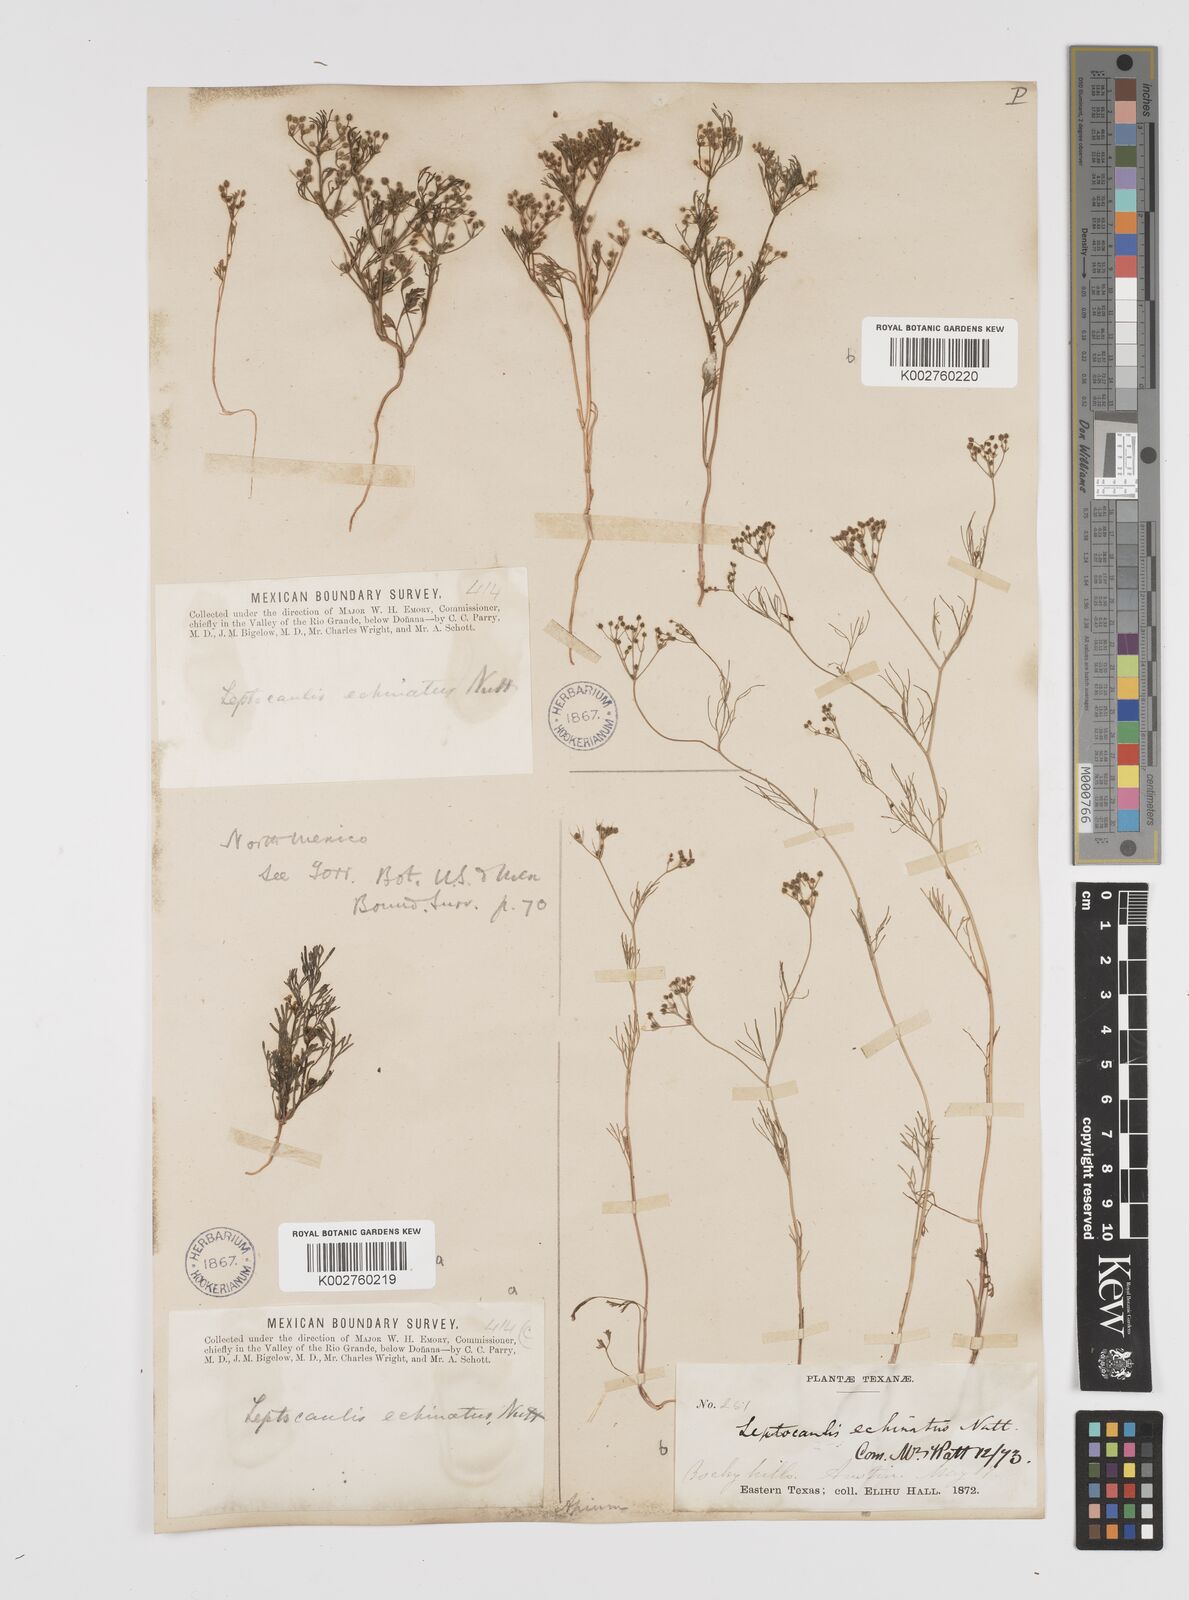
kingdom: Plantae
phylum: Tracheophyta
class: Magnoliopsida
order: Apiales
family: Apiaceae
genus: Spermolepis
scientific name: Spermolepis echinata
